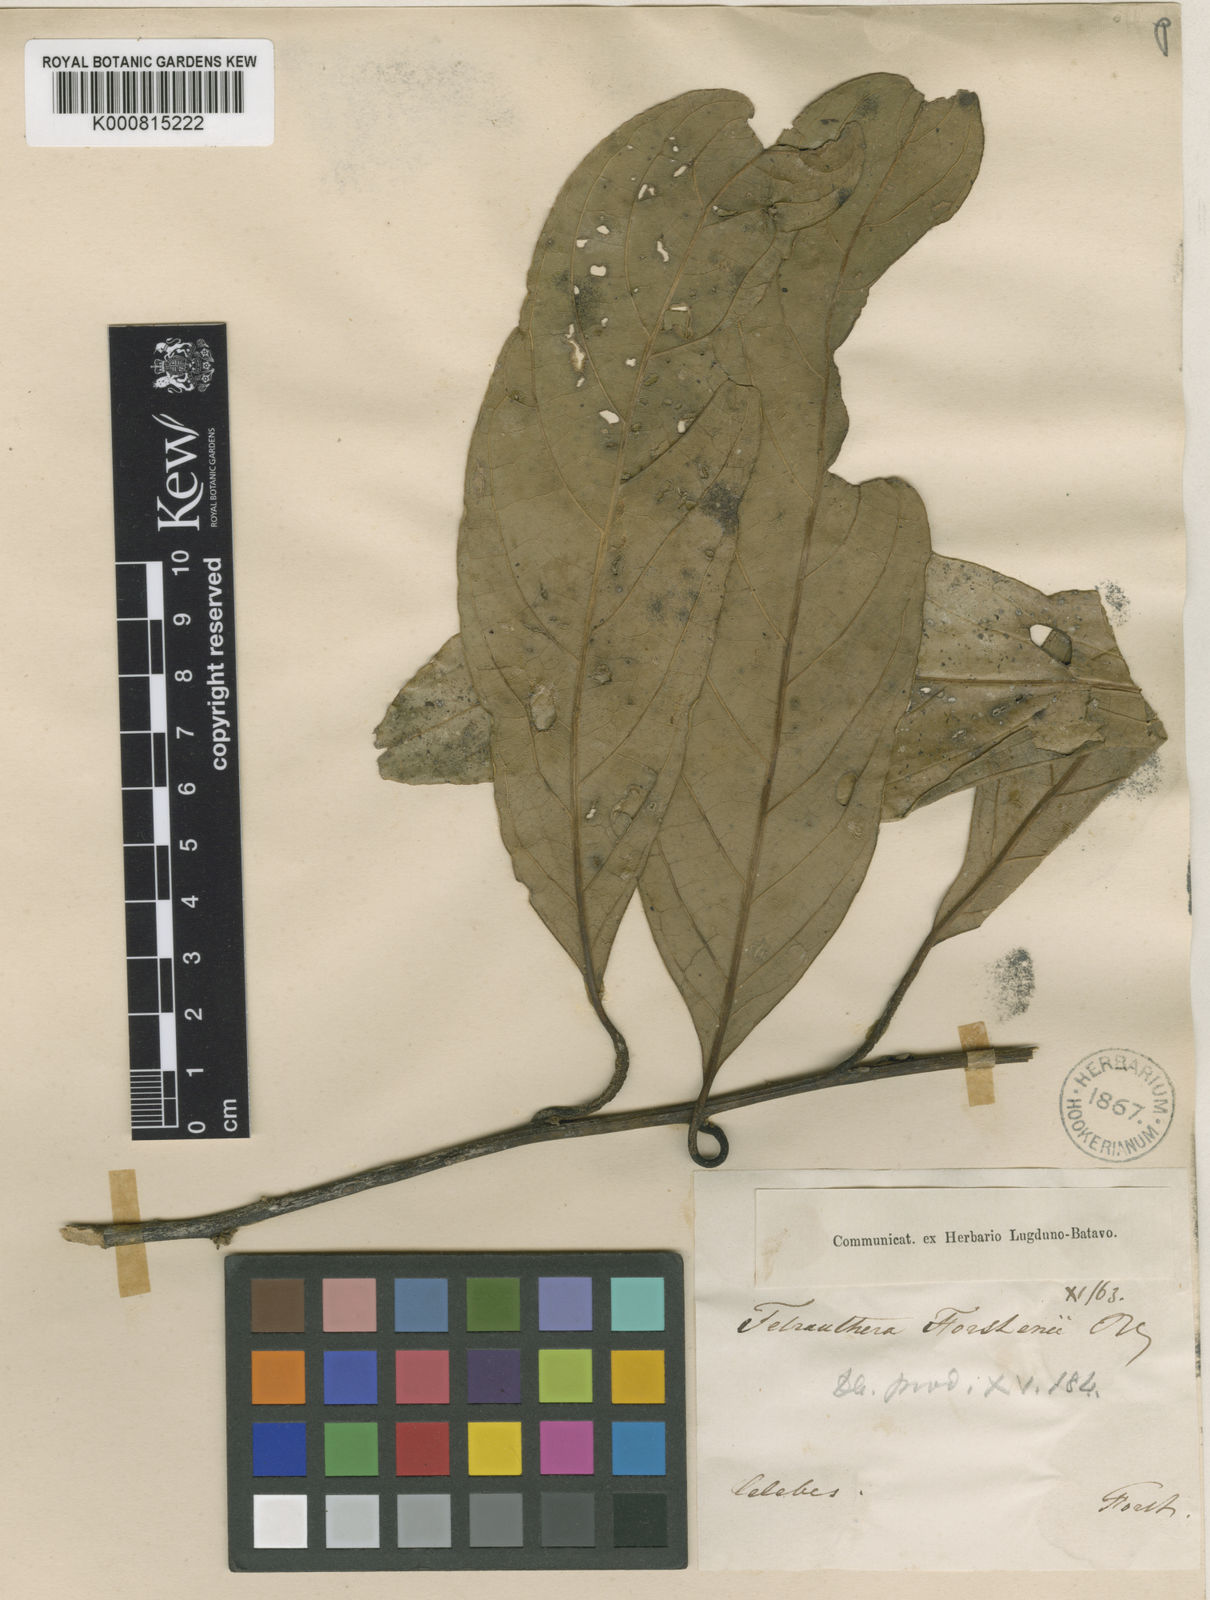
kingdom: Plantae
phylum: Tracheophyta
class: Magnoliopsida
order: Laurales
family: Lauraceae
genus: Litsea
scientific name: Litsea forstenii
